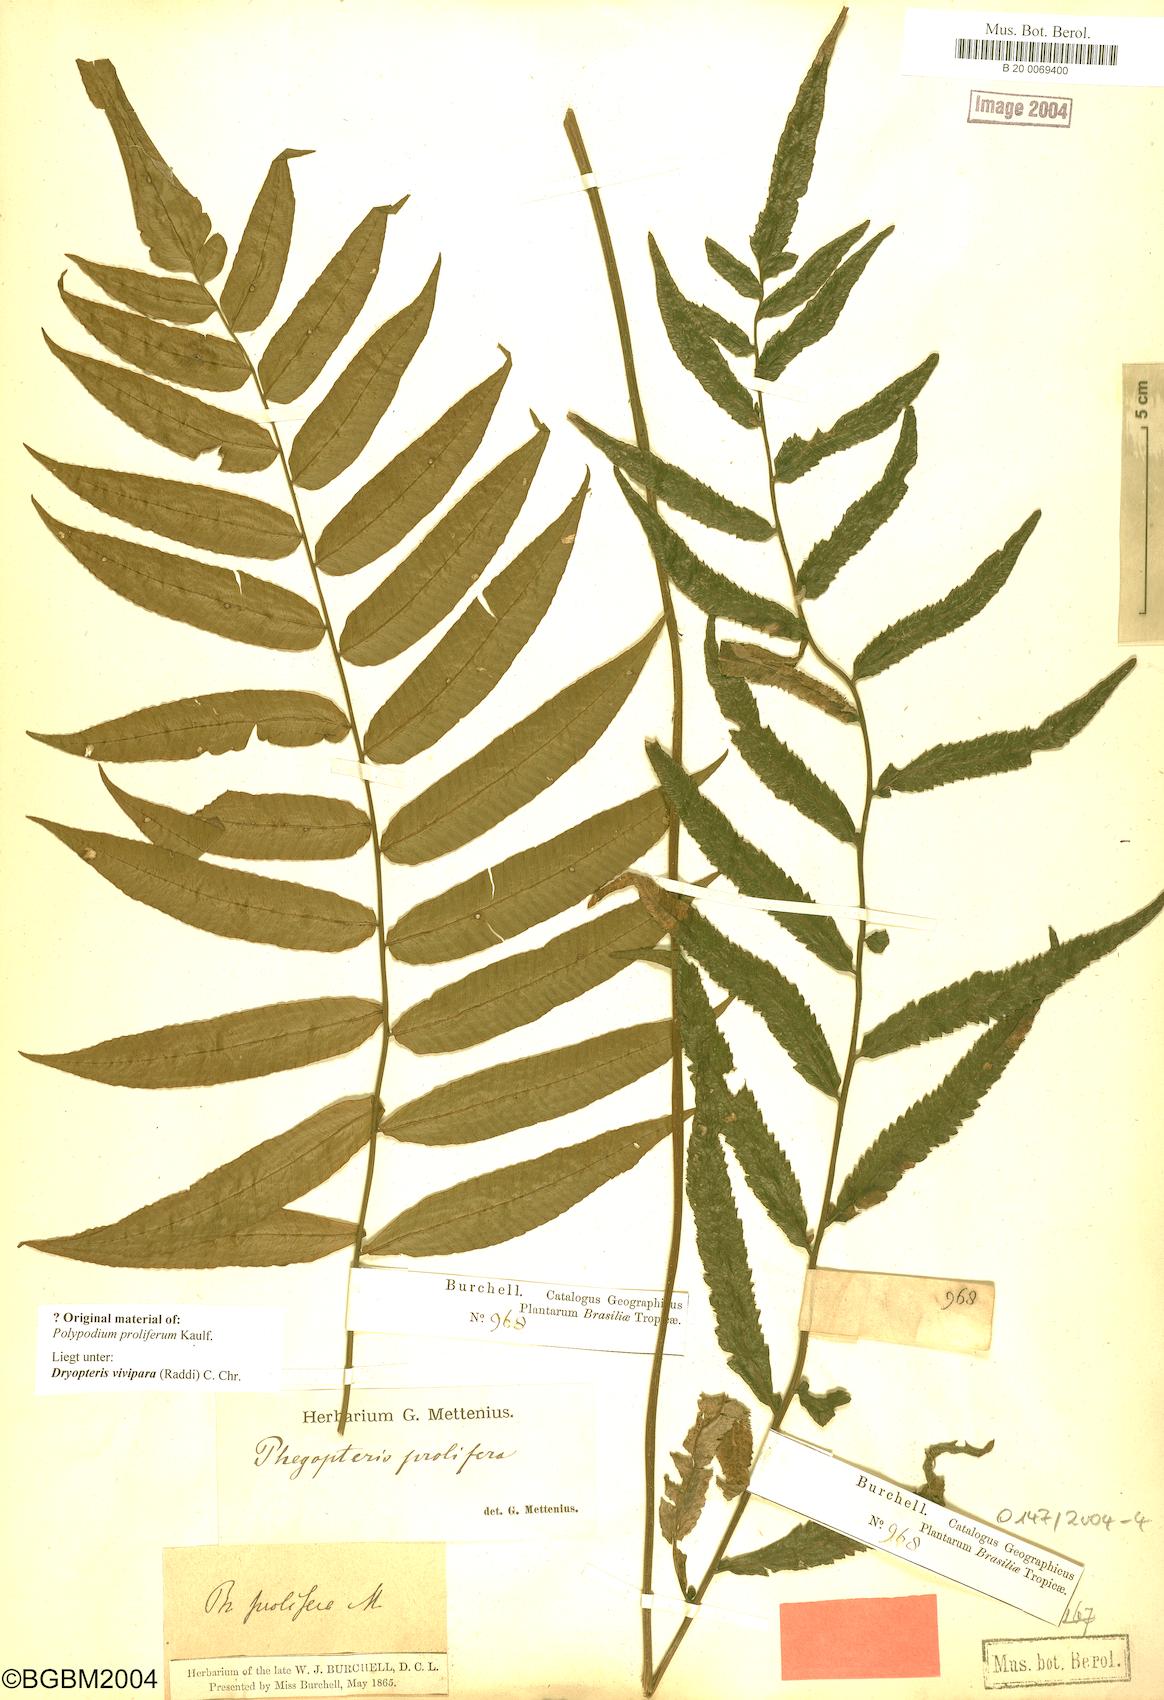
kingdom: Plantae
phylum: Tracheophyta
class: Polypodiopsida
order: Polypodiales
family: Thelypteridaceae
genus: Goniopteris
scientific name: Goniopteris vivipara
